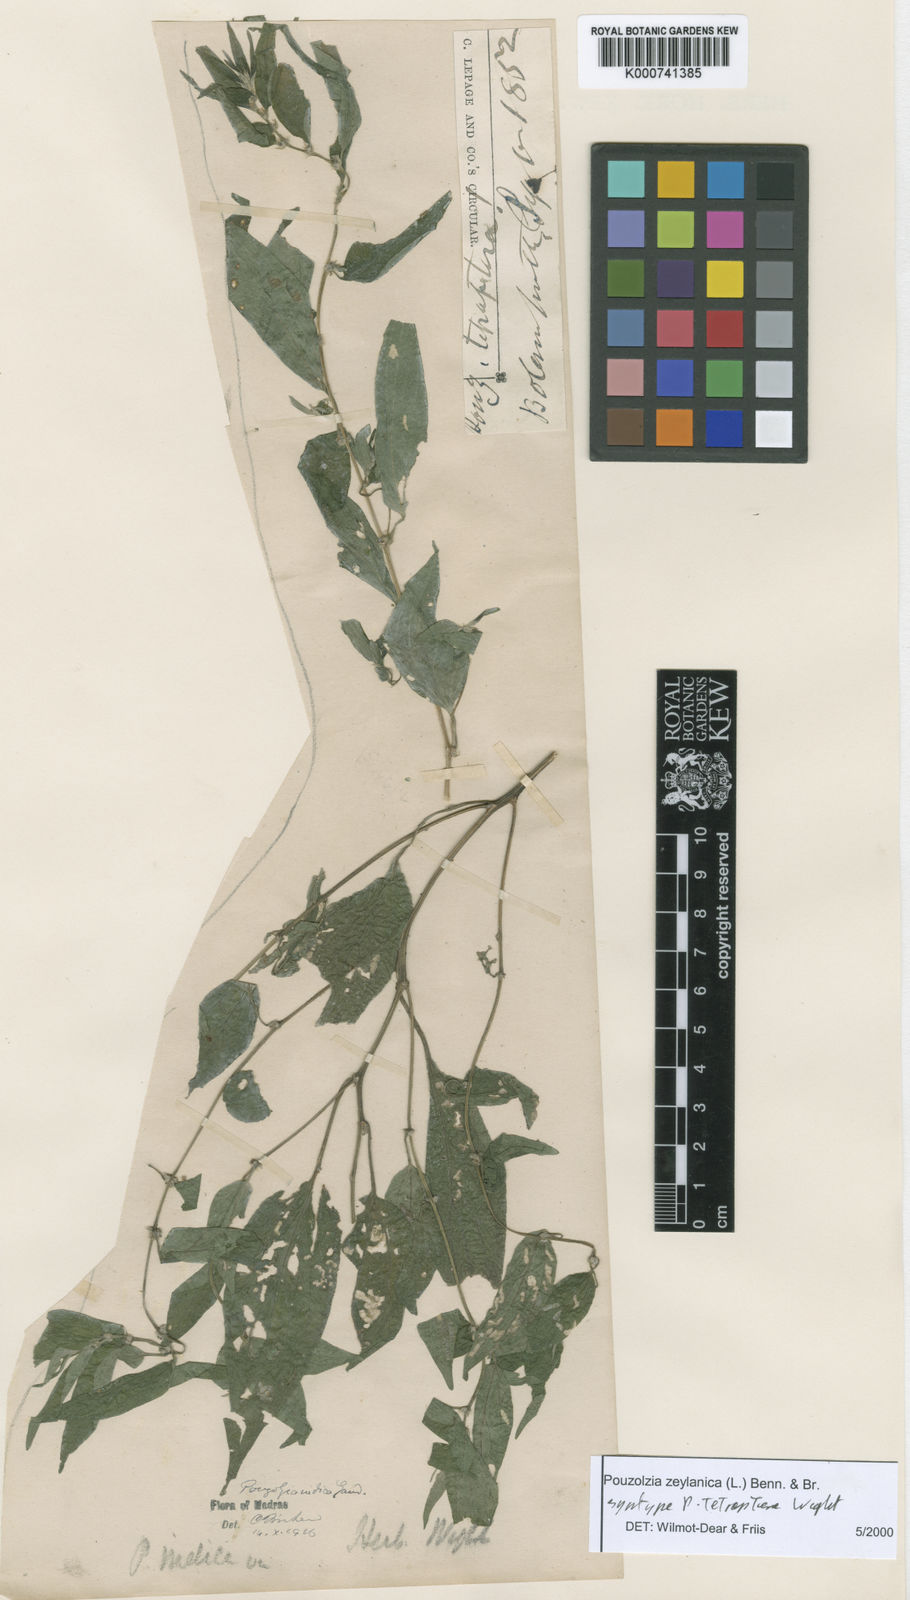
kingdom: Plantae
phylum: Tracheophyta
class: Magnoliopsida
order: Rosales
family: Urticaceae
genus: Pouzolzia
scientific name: Pouzolzia zeylanica
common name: Graceful pouzolzsbush
